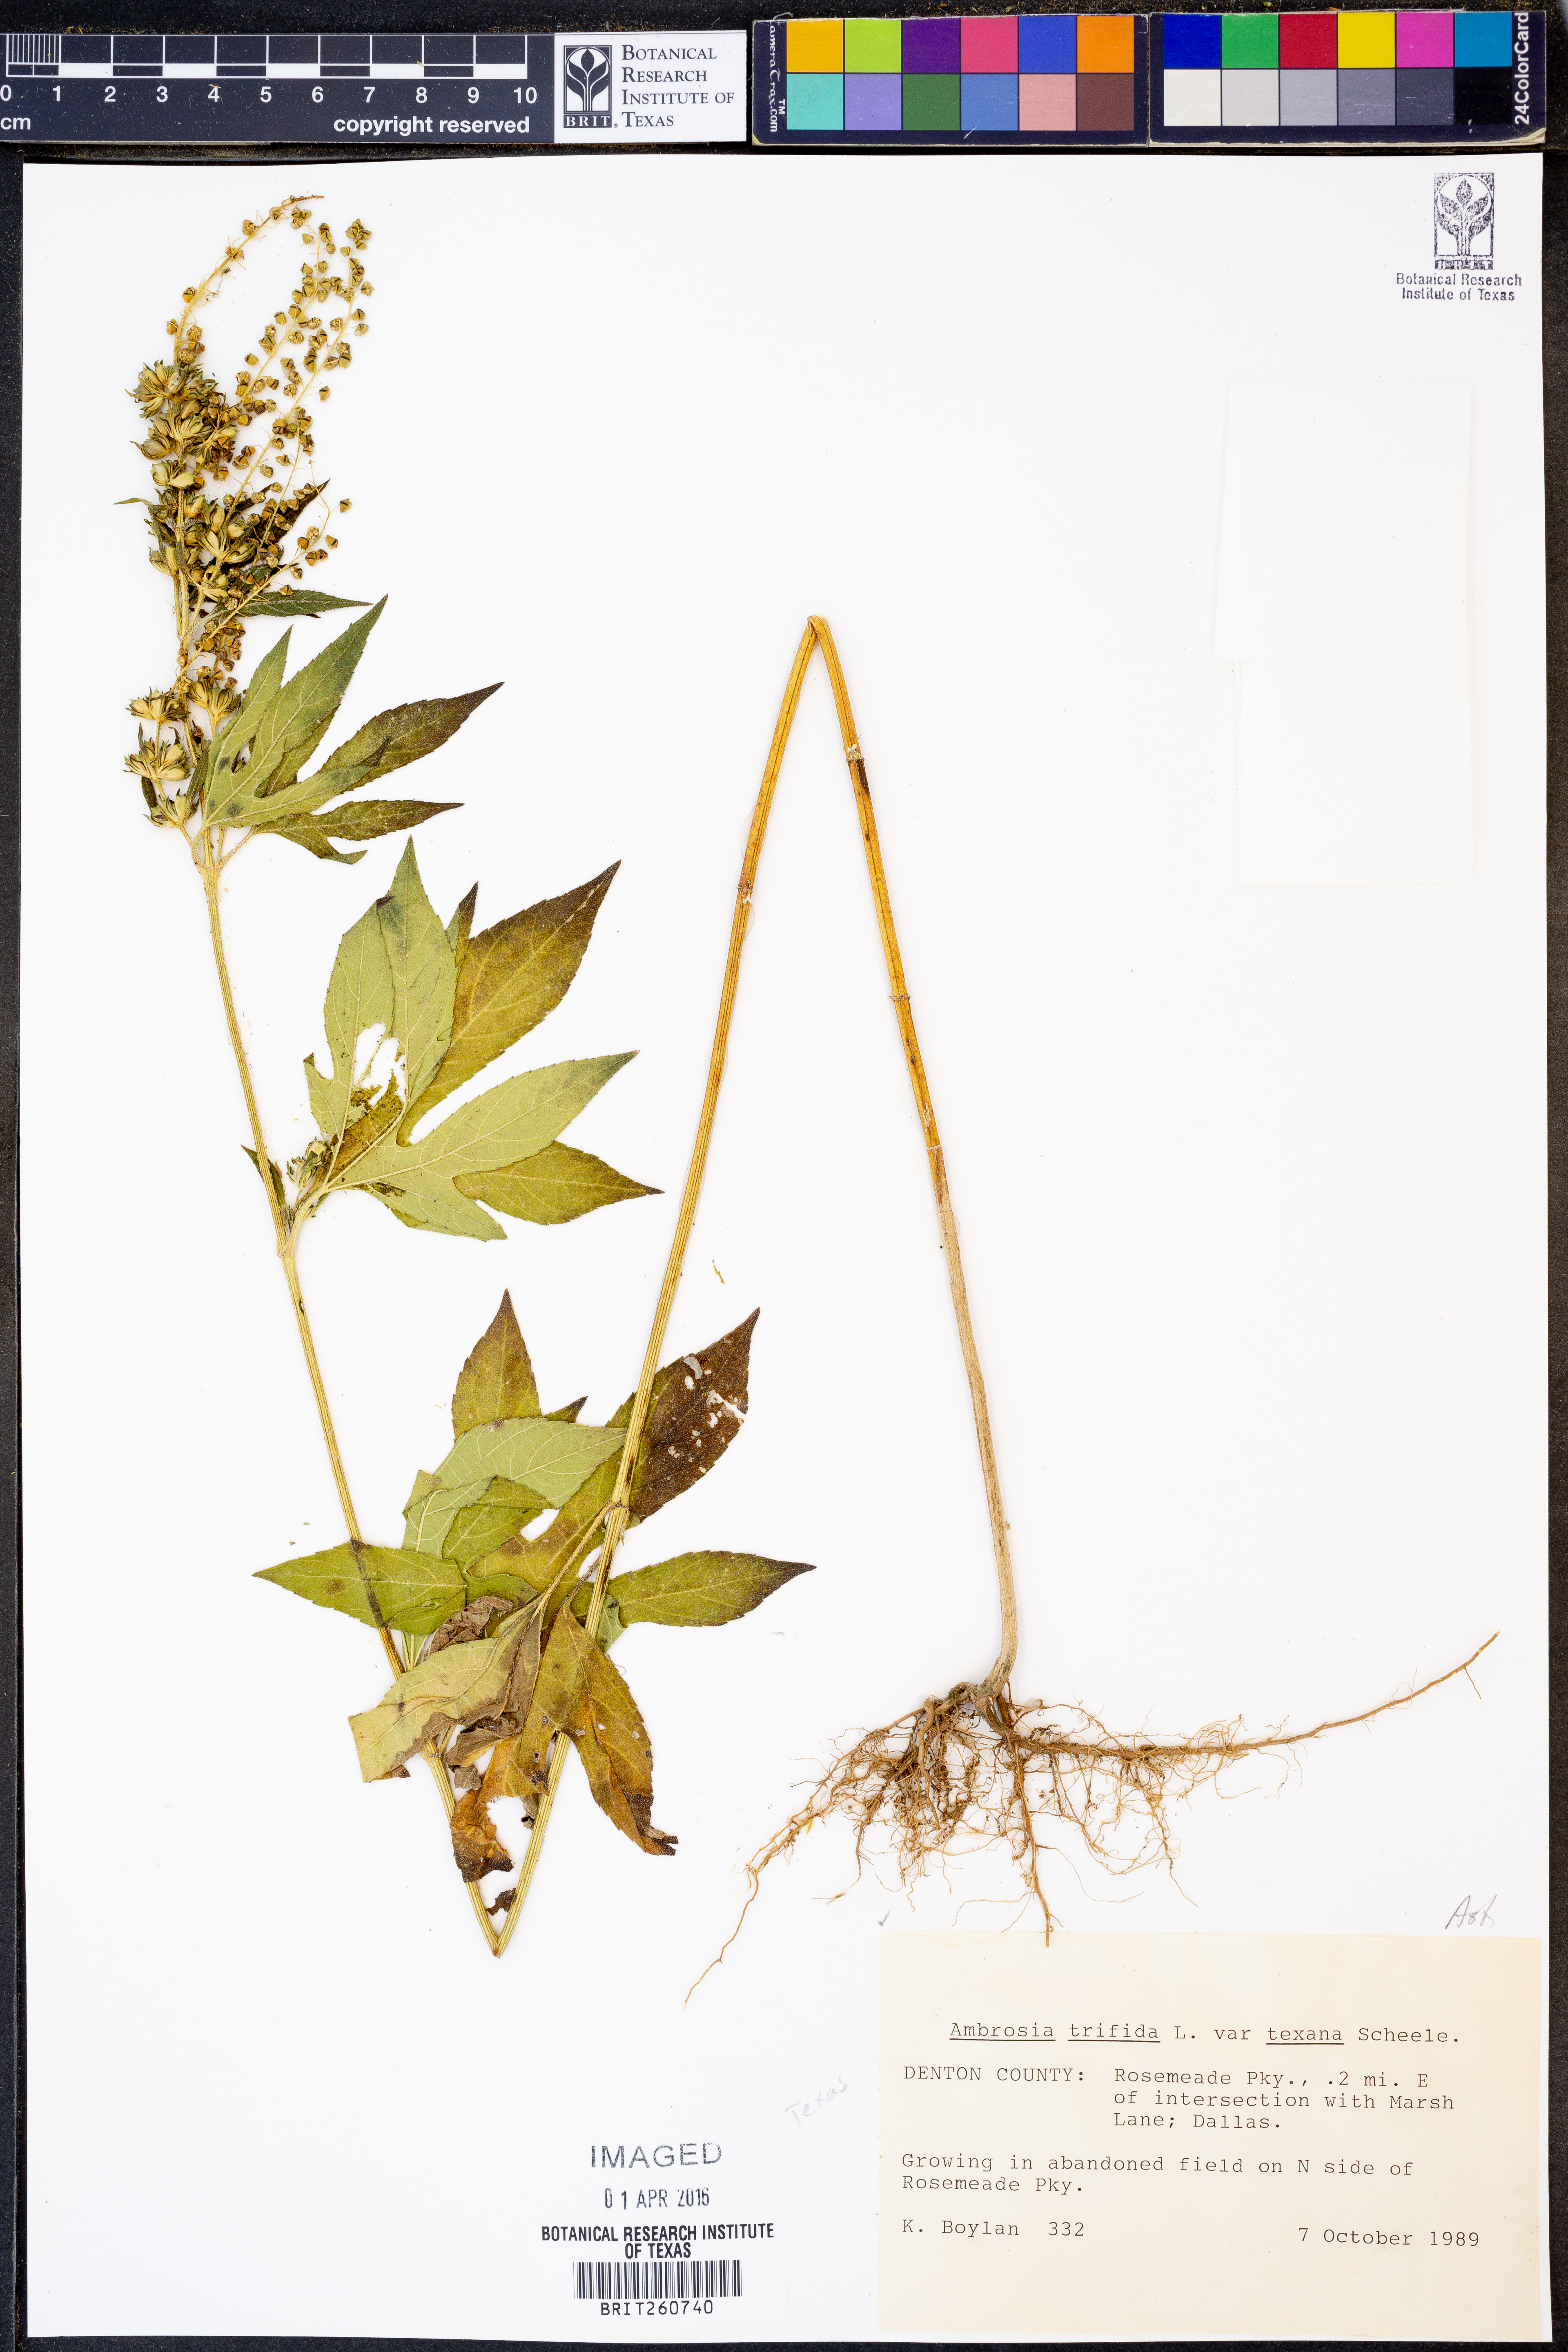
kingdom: Plantae
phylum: Tracheophyta
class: Magnoliopsida
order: Asterales
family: Asteraceae
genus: Ambrosia
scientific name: Ambrosia trifida
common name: Giant ragweed
